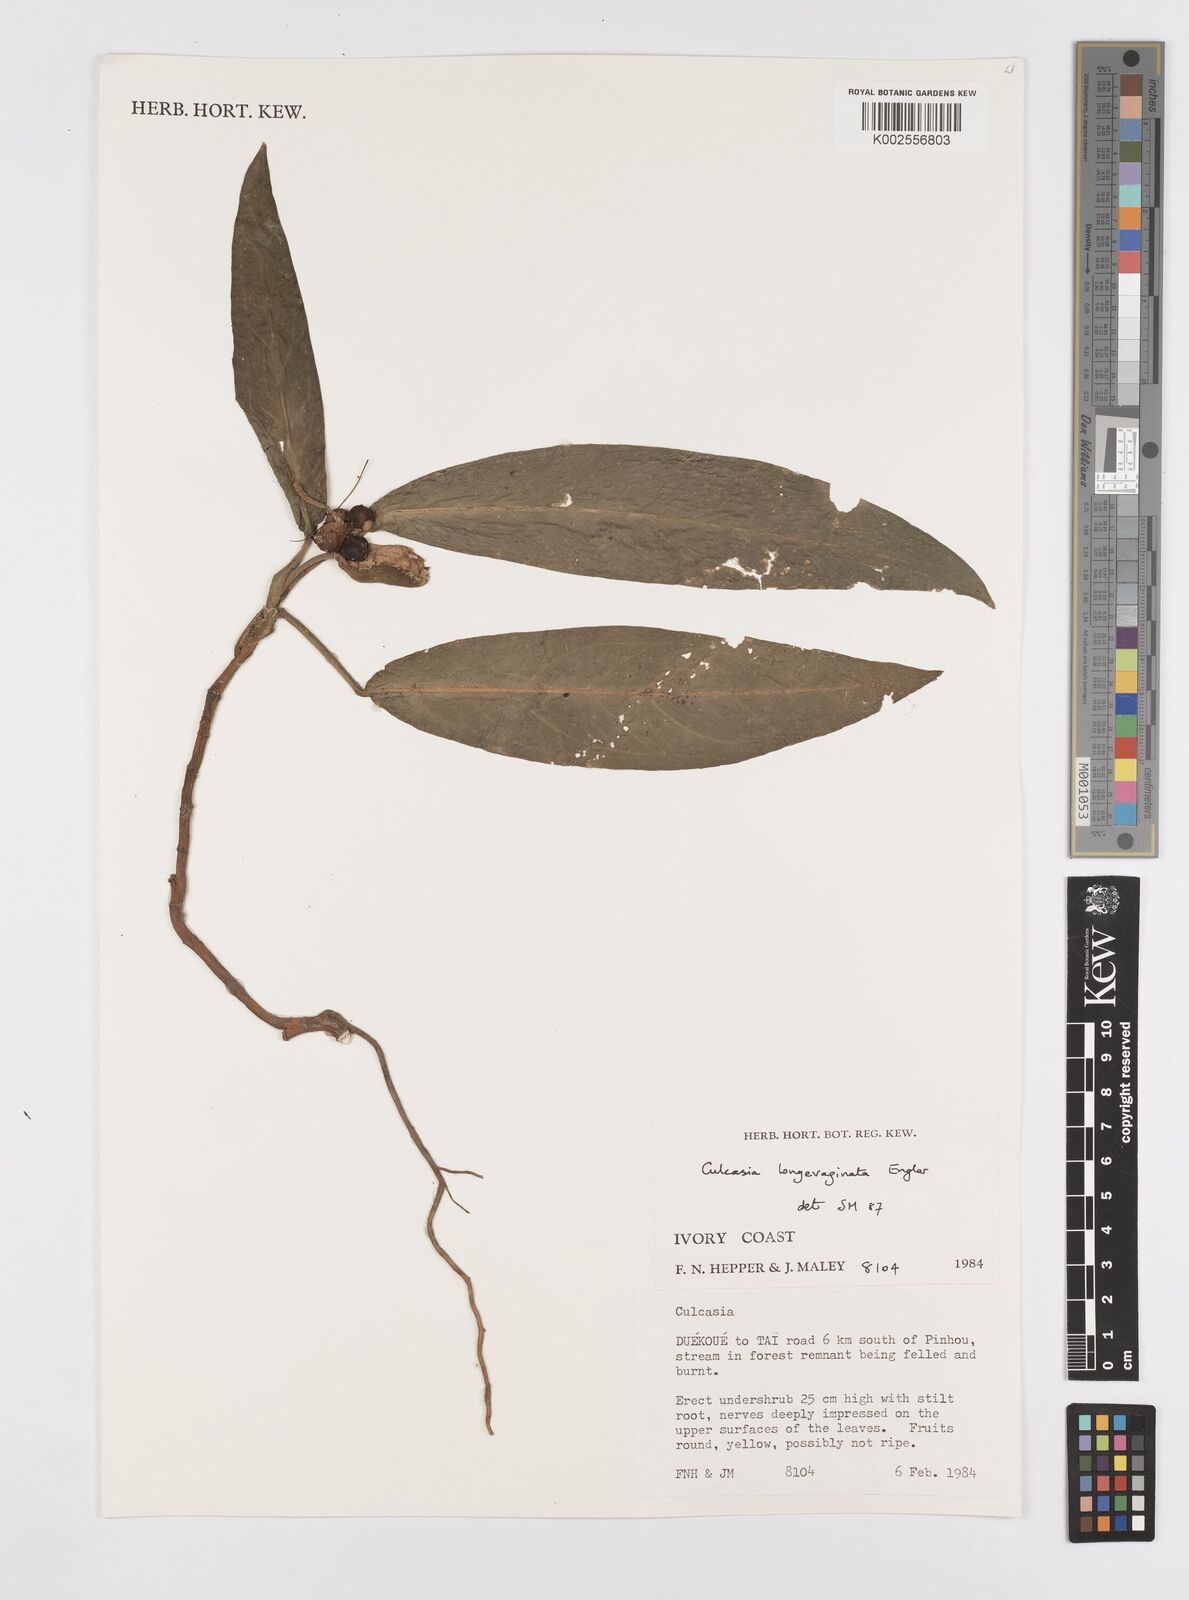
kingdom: Plantae
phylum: Tracheophyta
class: Liliopsida
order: Alismatales
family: Araceae
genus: Culcasia
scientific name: Culcasia striolata
